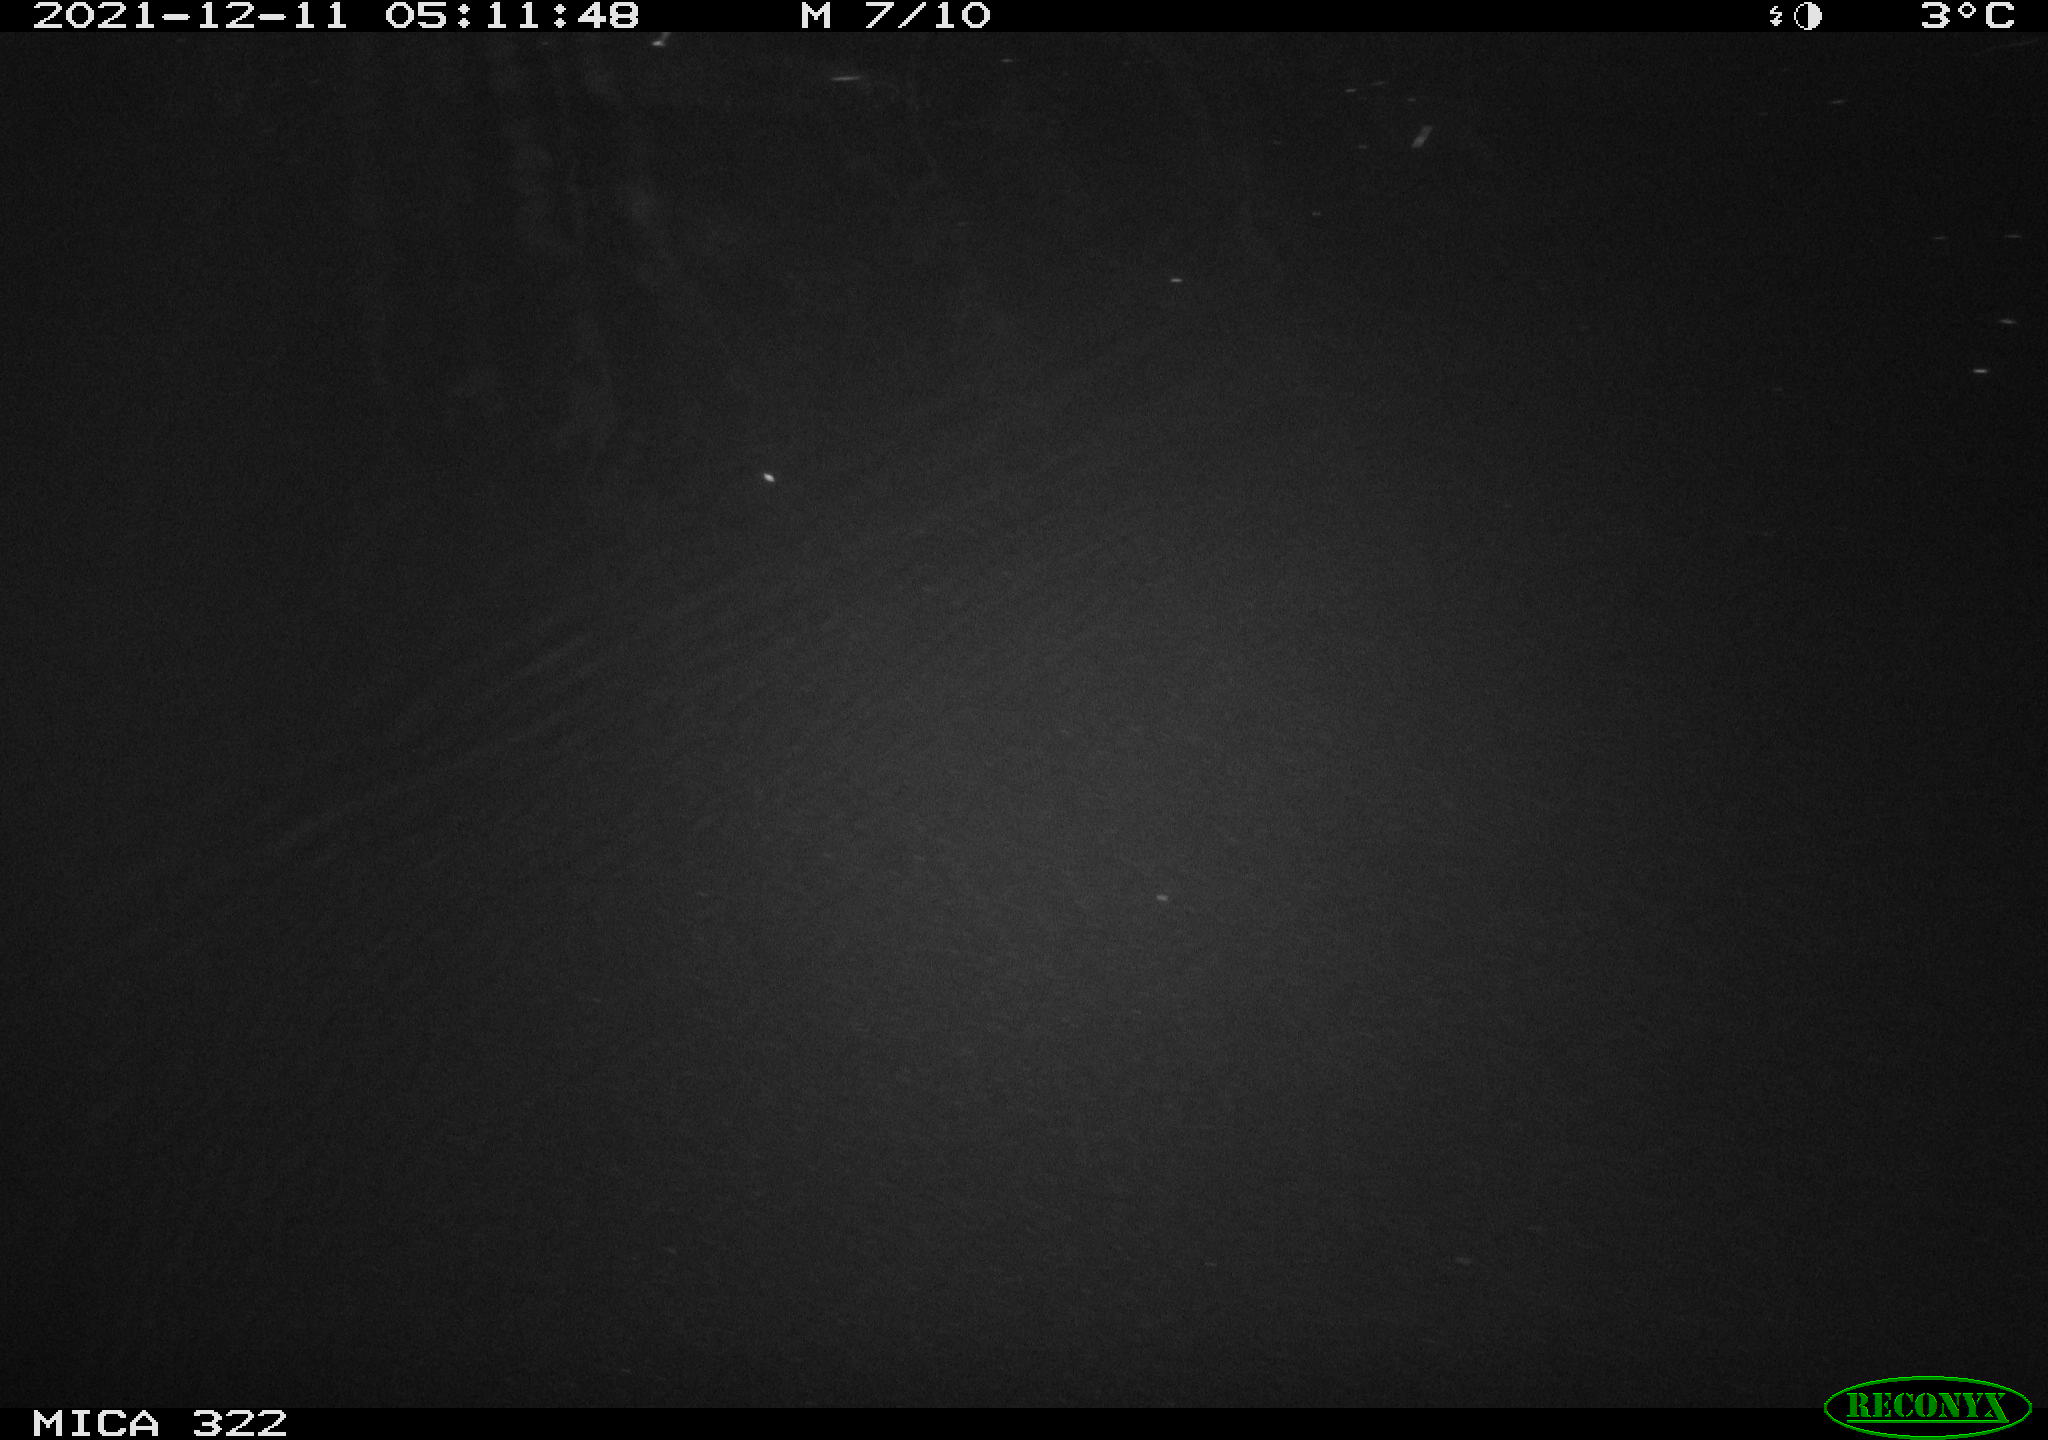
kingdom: Animalia
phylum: Chordata
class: Mammalia
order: Rodentia
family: Muridae
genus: Rattus
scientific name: Rattus norvegicus
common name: Brown rat
